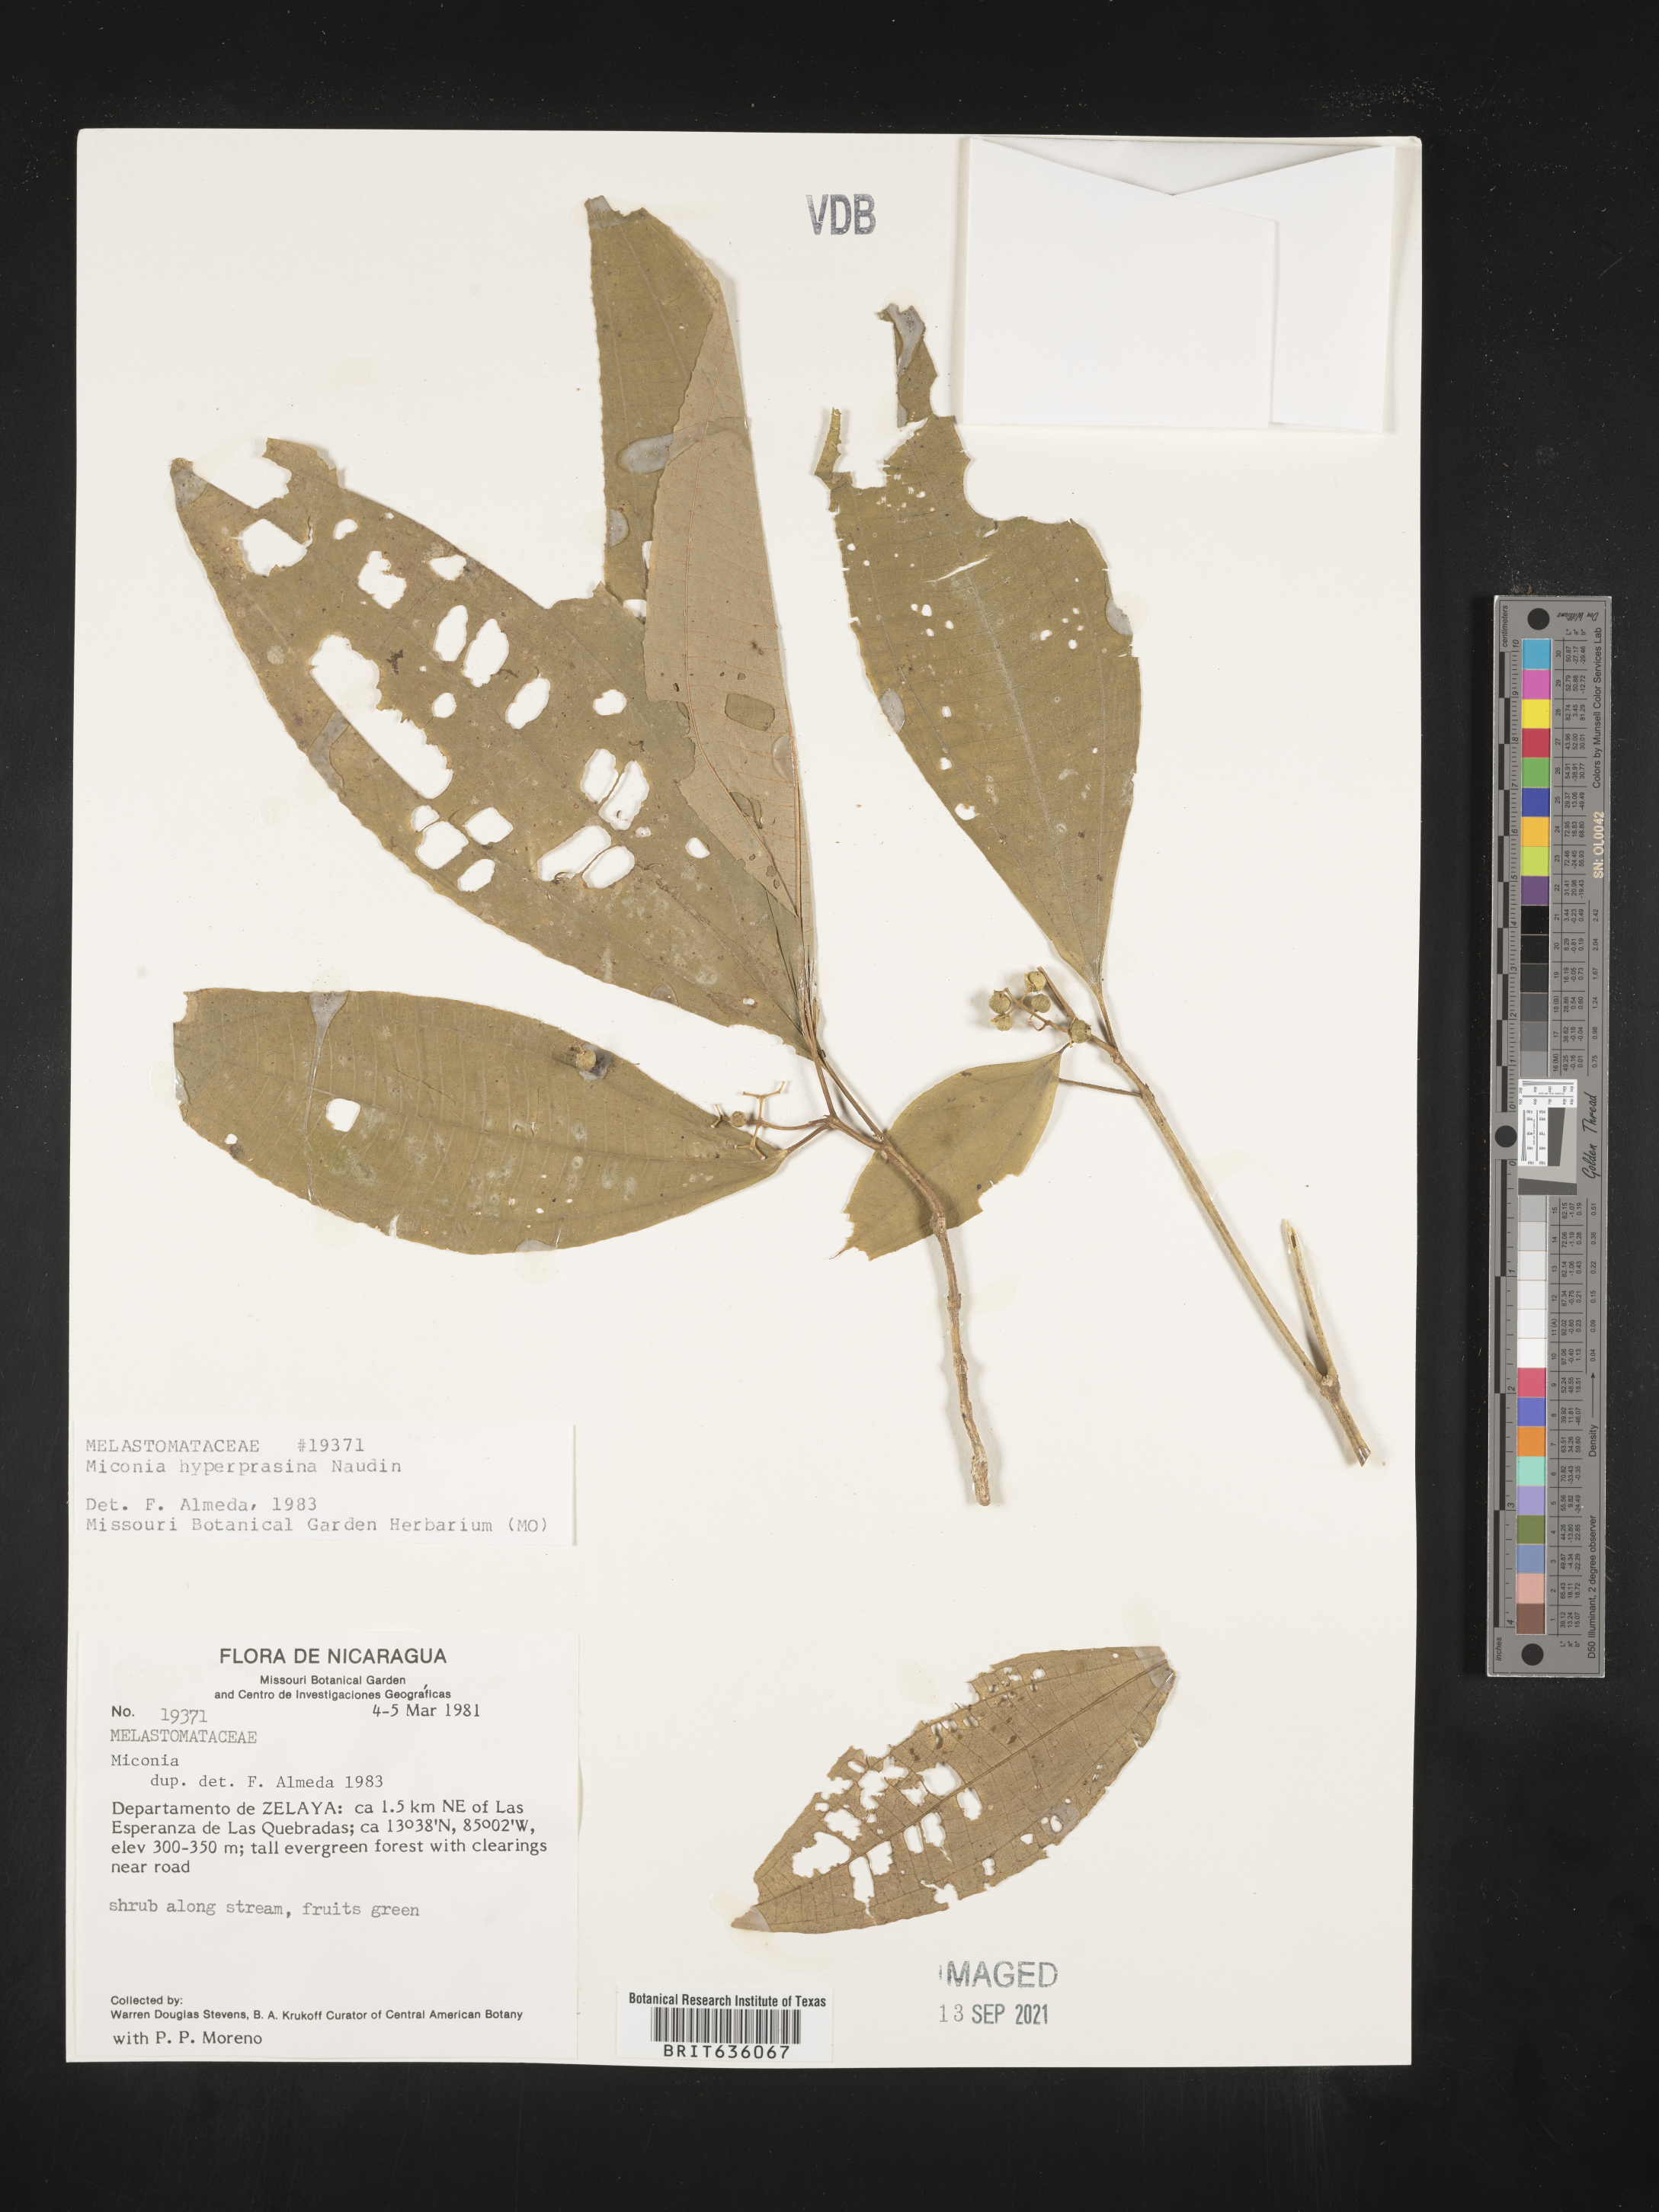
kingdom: Plantae
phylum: Tracheophyta
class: Magnoliopsida
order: Myrtales
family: Melastomataceae
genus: Miconia
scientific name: Miconia
